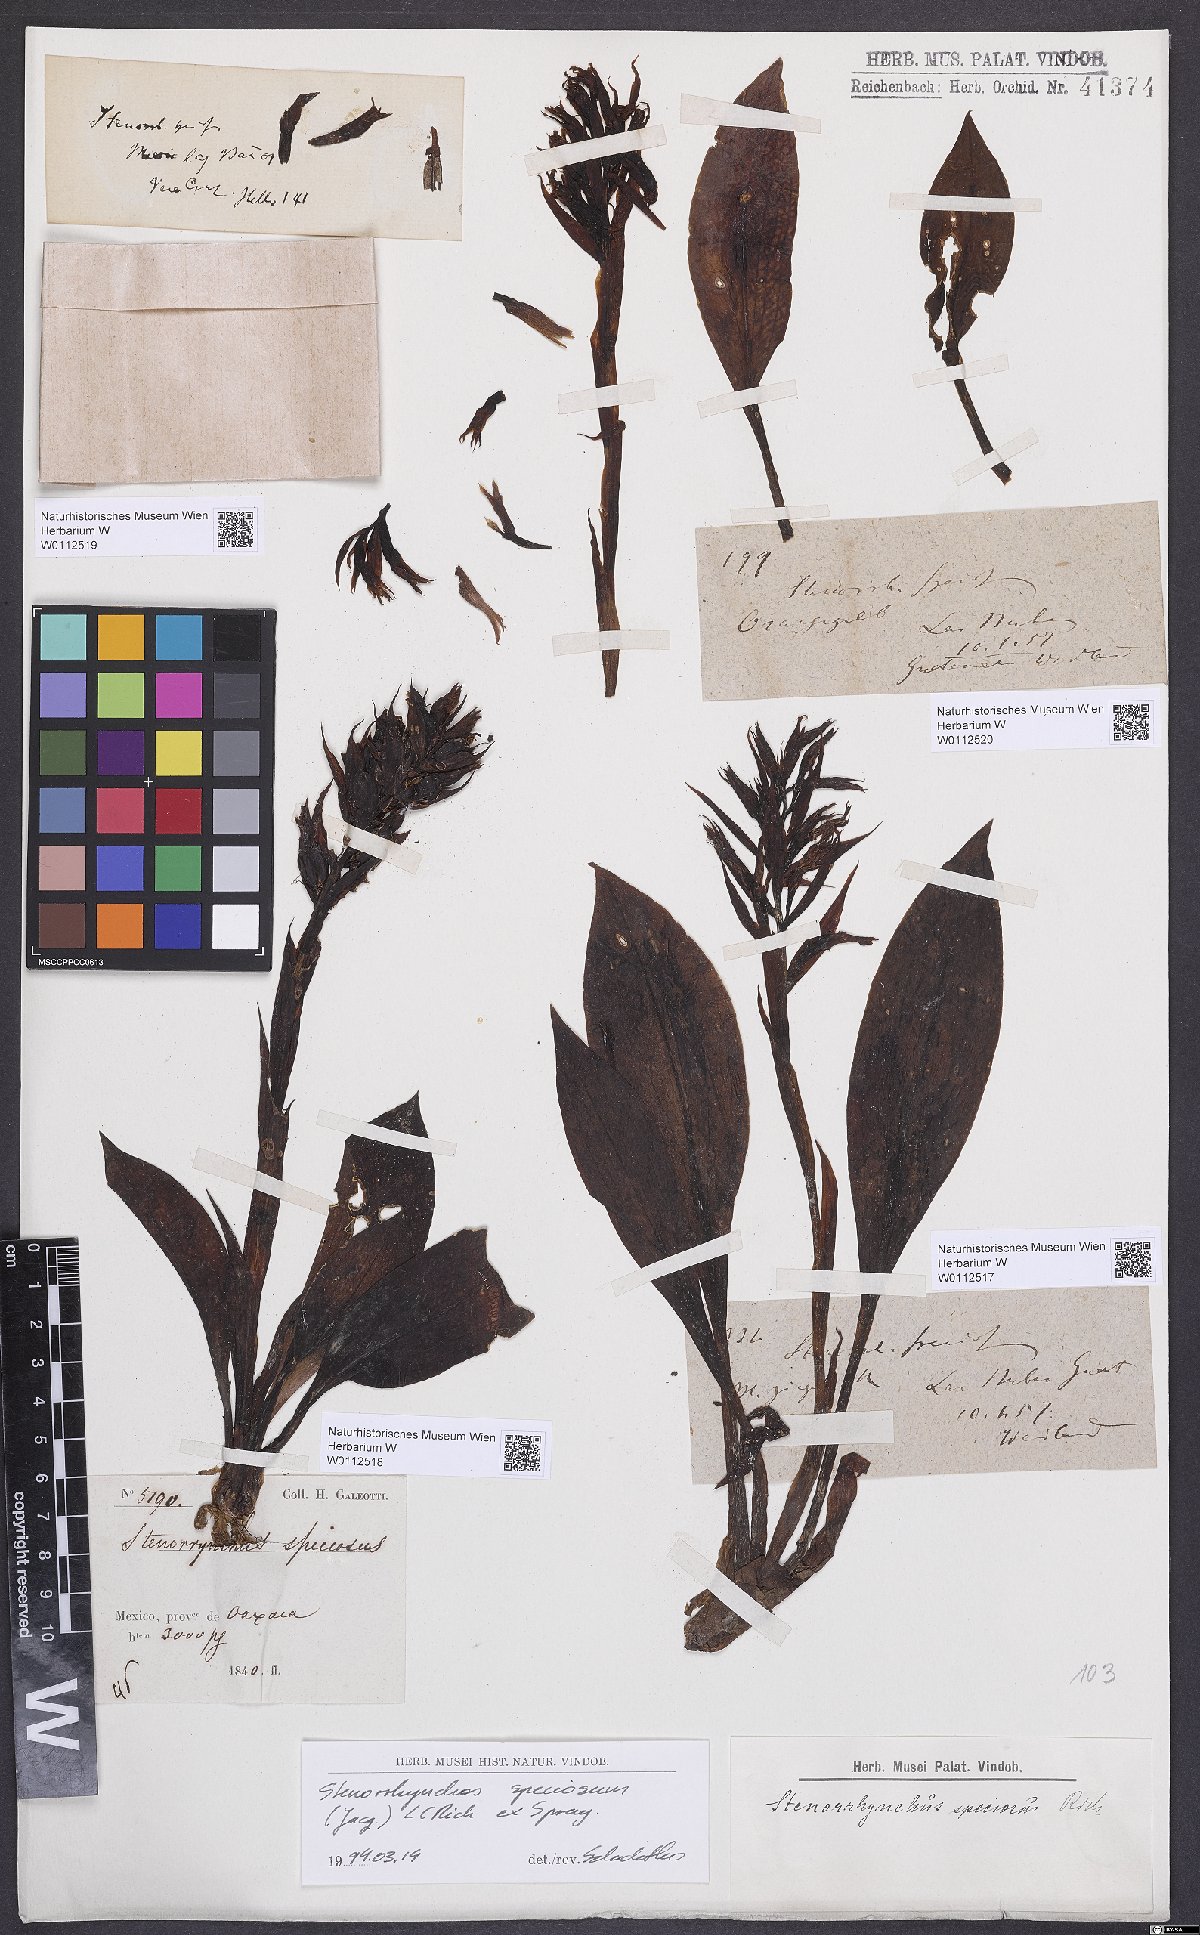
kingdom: Plantae
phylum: Tracheophyta
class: Liliopsida
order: Asparagales
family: Orchidaceae
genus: Stenorrhynchos
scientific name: Stenorrhynchos speciosum
